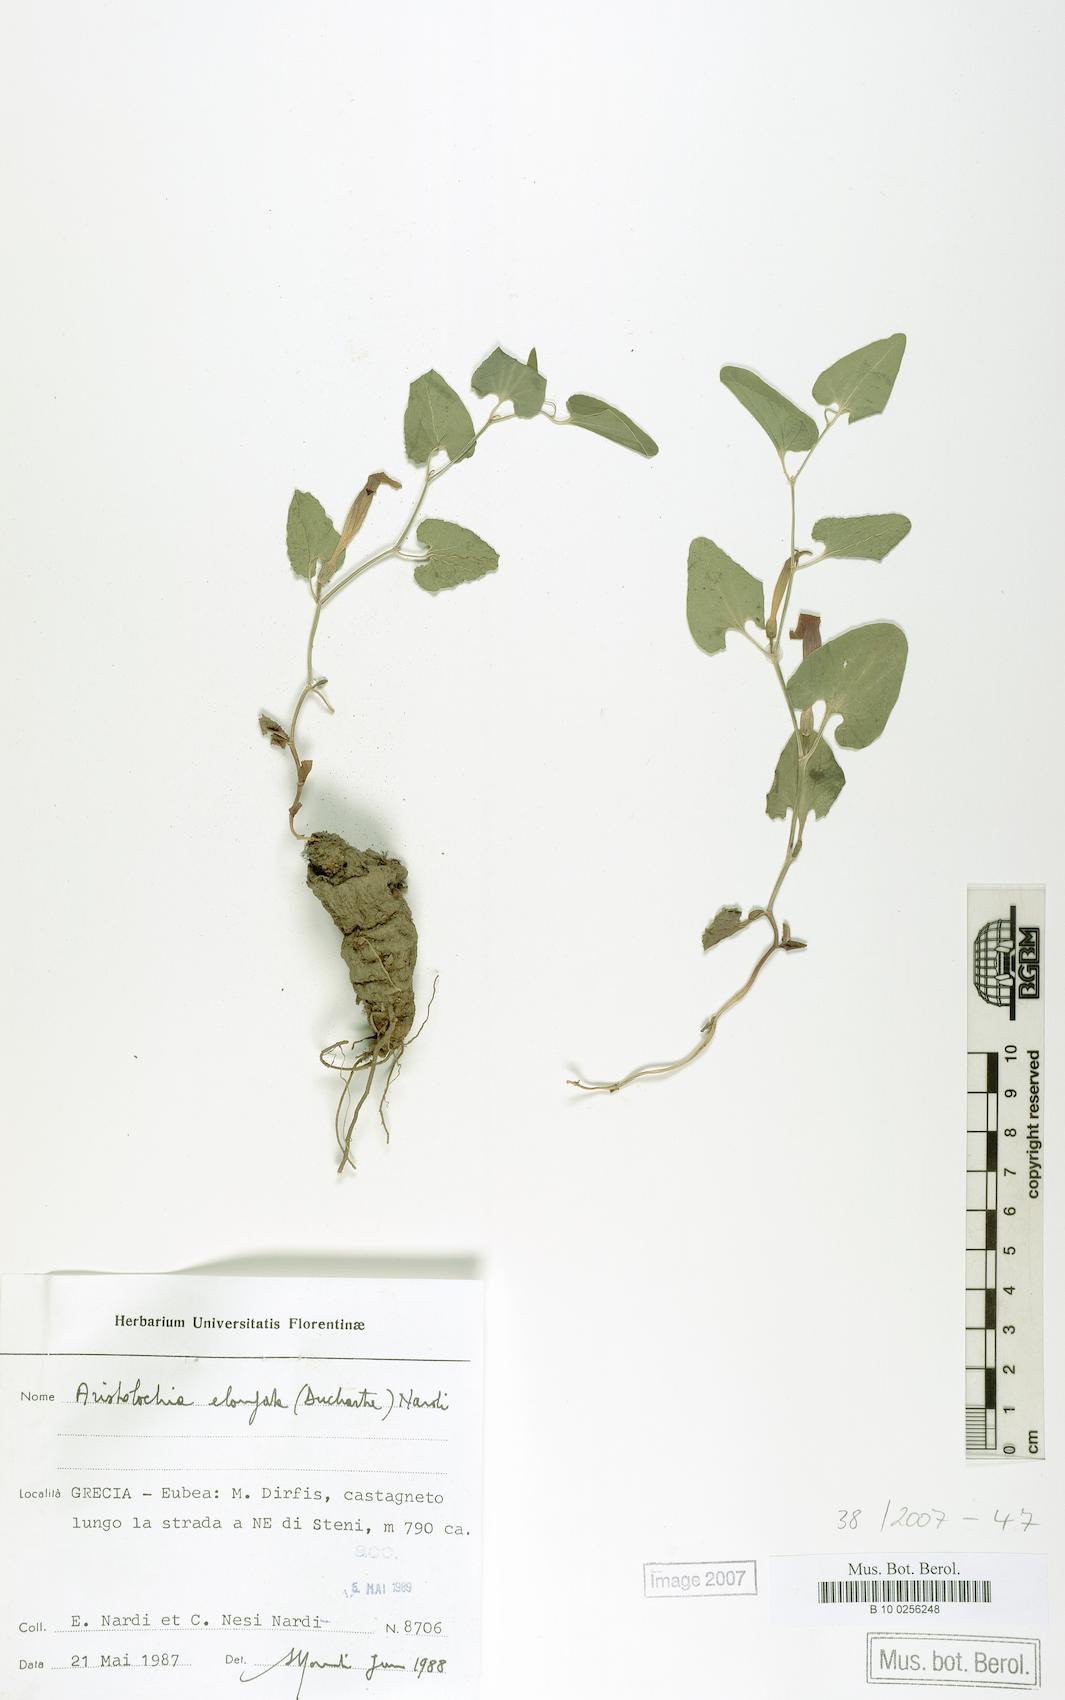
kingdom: Plantae
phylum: Tracheophyta
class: Magnoliopsida
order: Piperales
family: Aristolochiaceae
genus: Aristolochia
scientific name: Aristolochia nardiana
